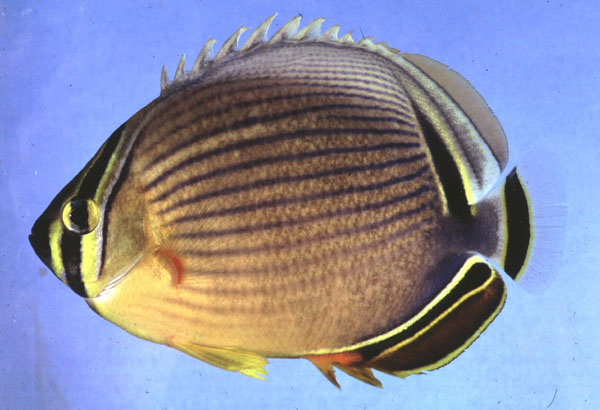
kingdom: Animalia
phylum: Chordata
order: Perciformes
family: Chaetodontidae
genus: Chaetodon
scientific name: Chaetodon trifasciatus
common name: Redfin butterflyfish
